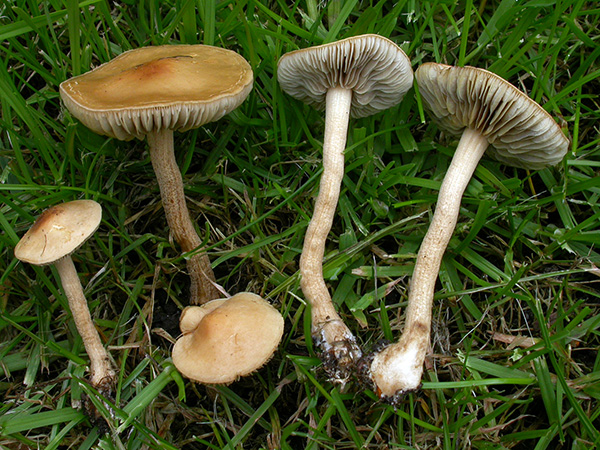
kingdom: Fungi
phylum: Basidiomycota
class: Agaricomycetes
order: Agaricales
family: Strophariaceae
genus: Agrocybe
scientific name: Agrocybe pediades
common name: almindelig agerhat
